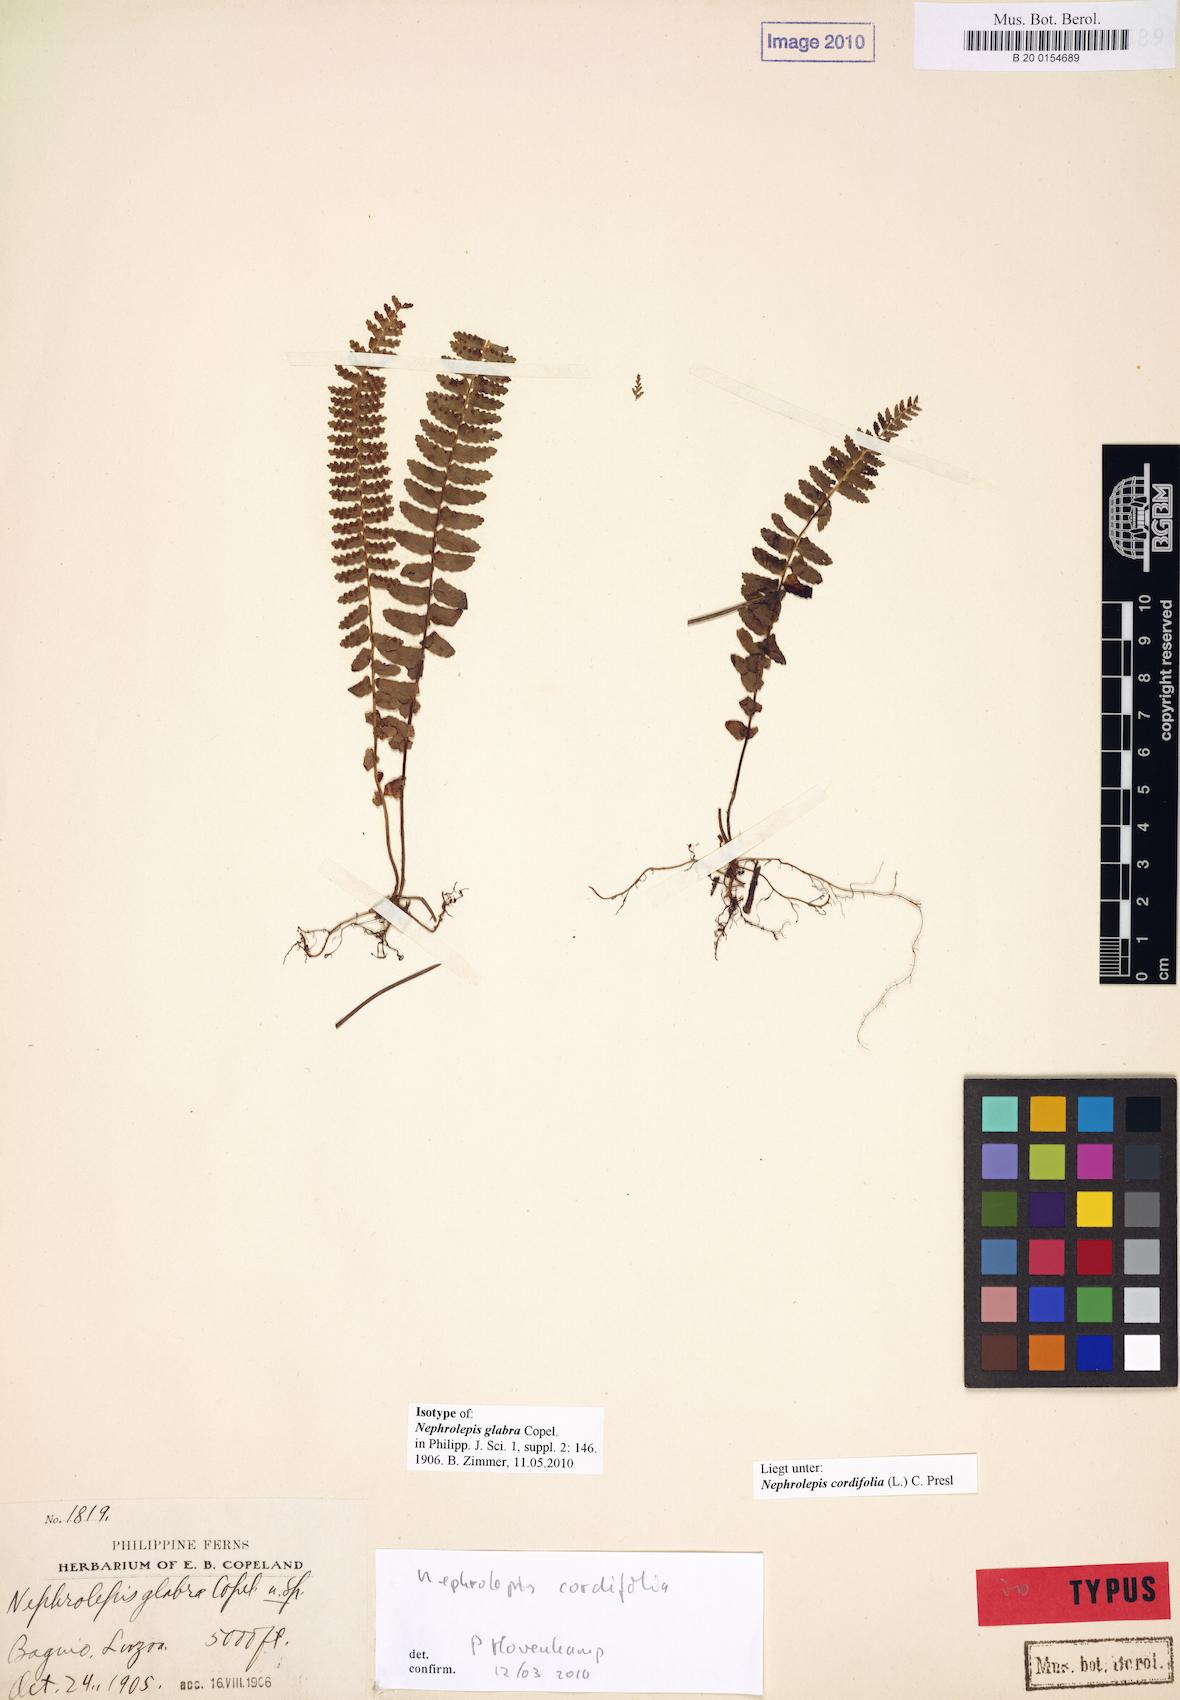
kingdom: Plantae
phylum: Tracheophyta
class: Polypodiopsida
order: Polypodiales
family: Nephrolepidaceae
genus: Nephrolepis
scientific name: Nephrolepis cordifolia
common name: Narrow swordfern
